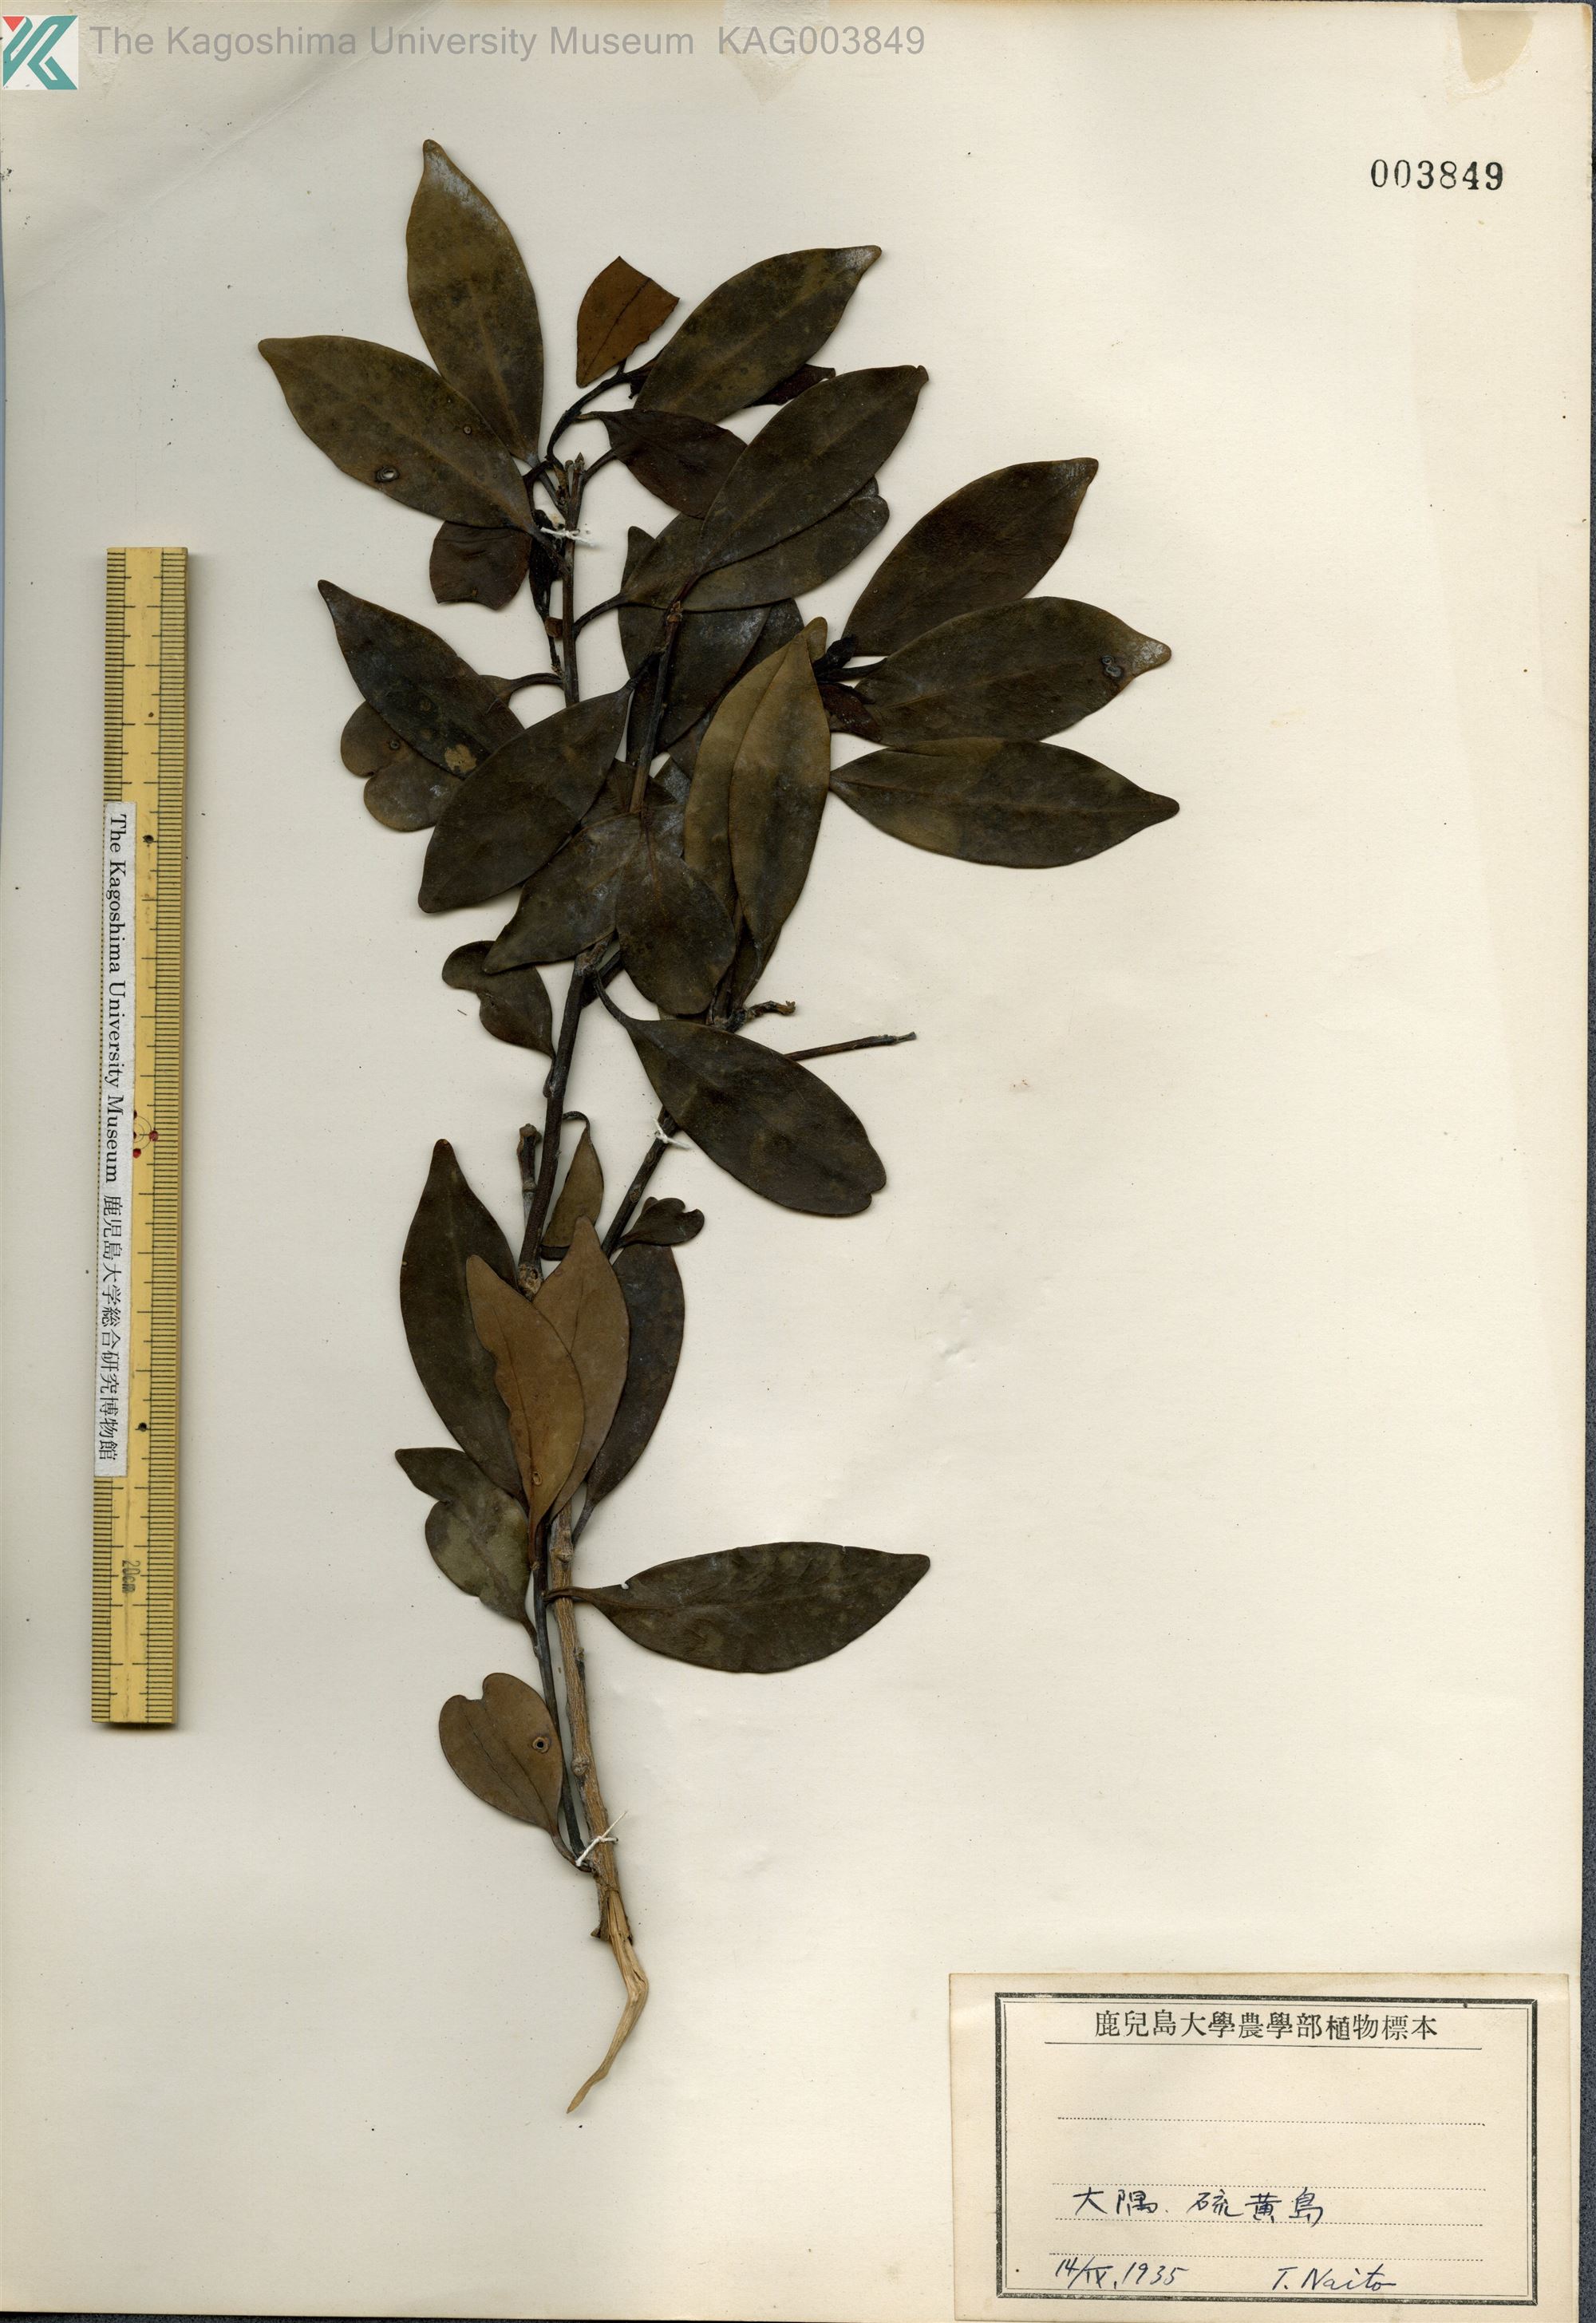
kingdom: Plantae
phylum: Tracheophyta
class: Magnoliopsida
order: Aquifoliales
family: Aquifoliaceae
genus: Ilex
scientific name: Ilex integra
